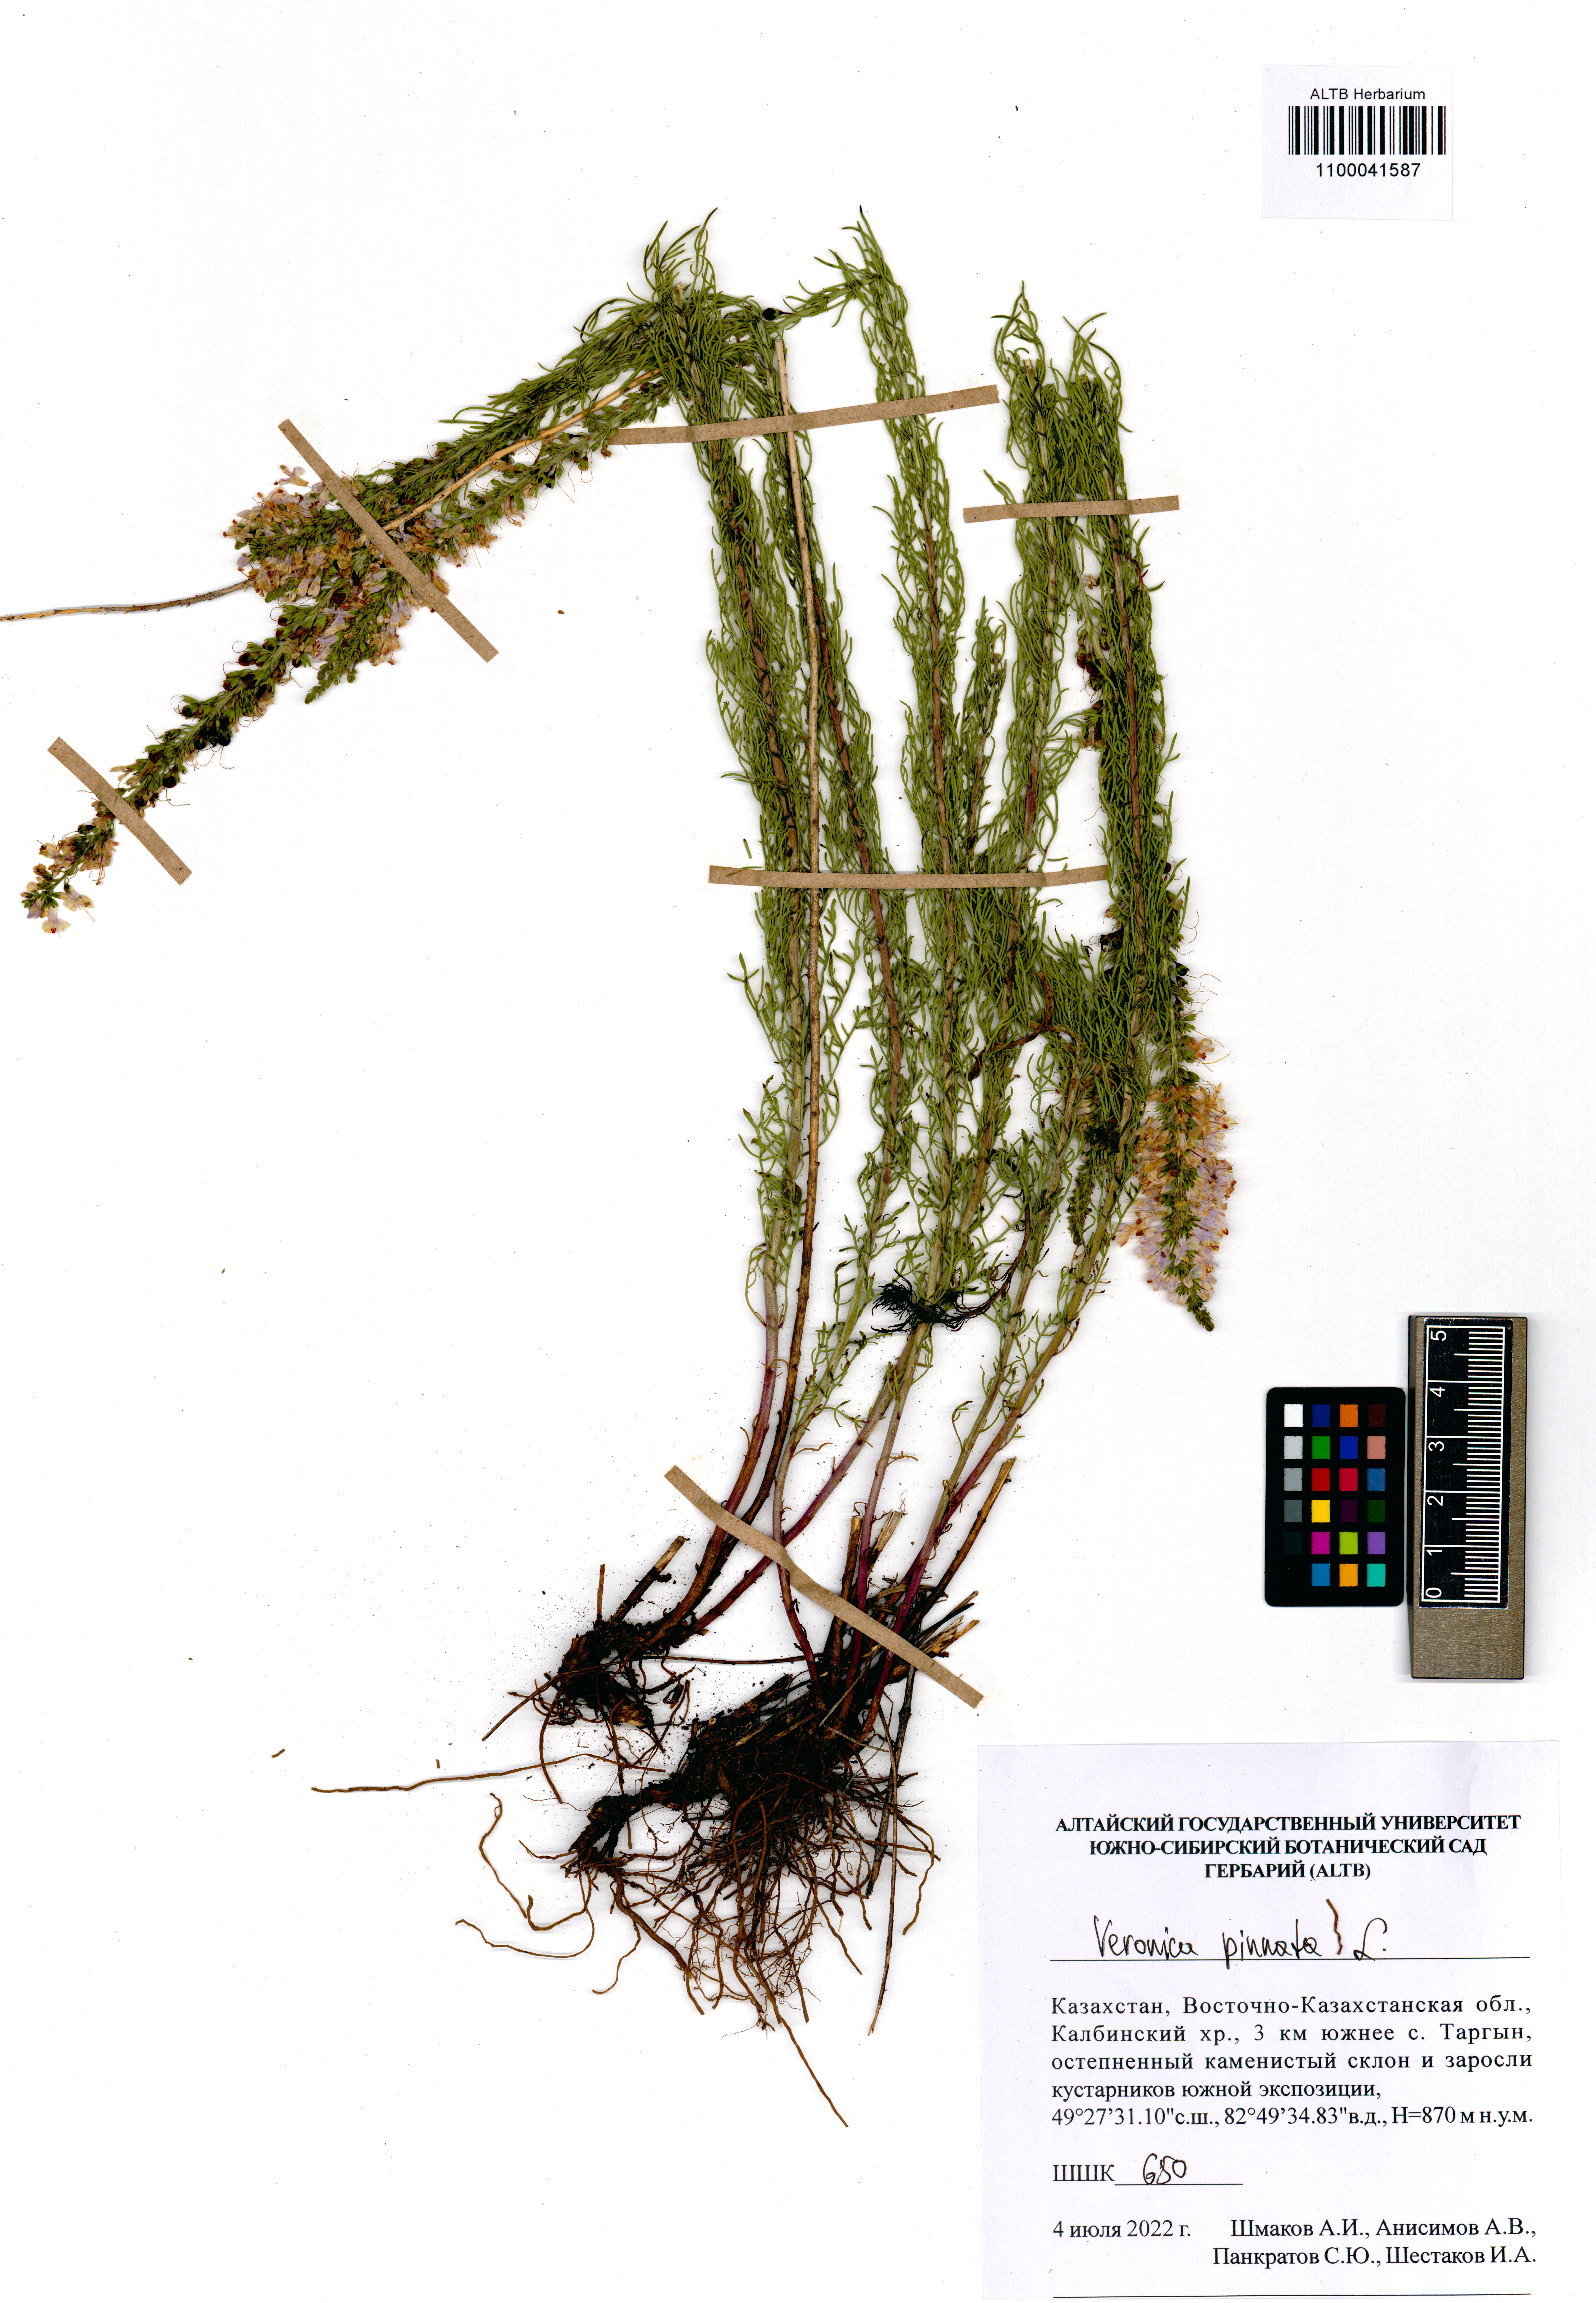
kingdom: Plantae
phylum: Tracheophyta
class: Magnoliopsida
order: Lamiales
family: Plantaginaceae
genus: Veronica
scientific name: Veronica pinnata
